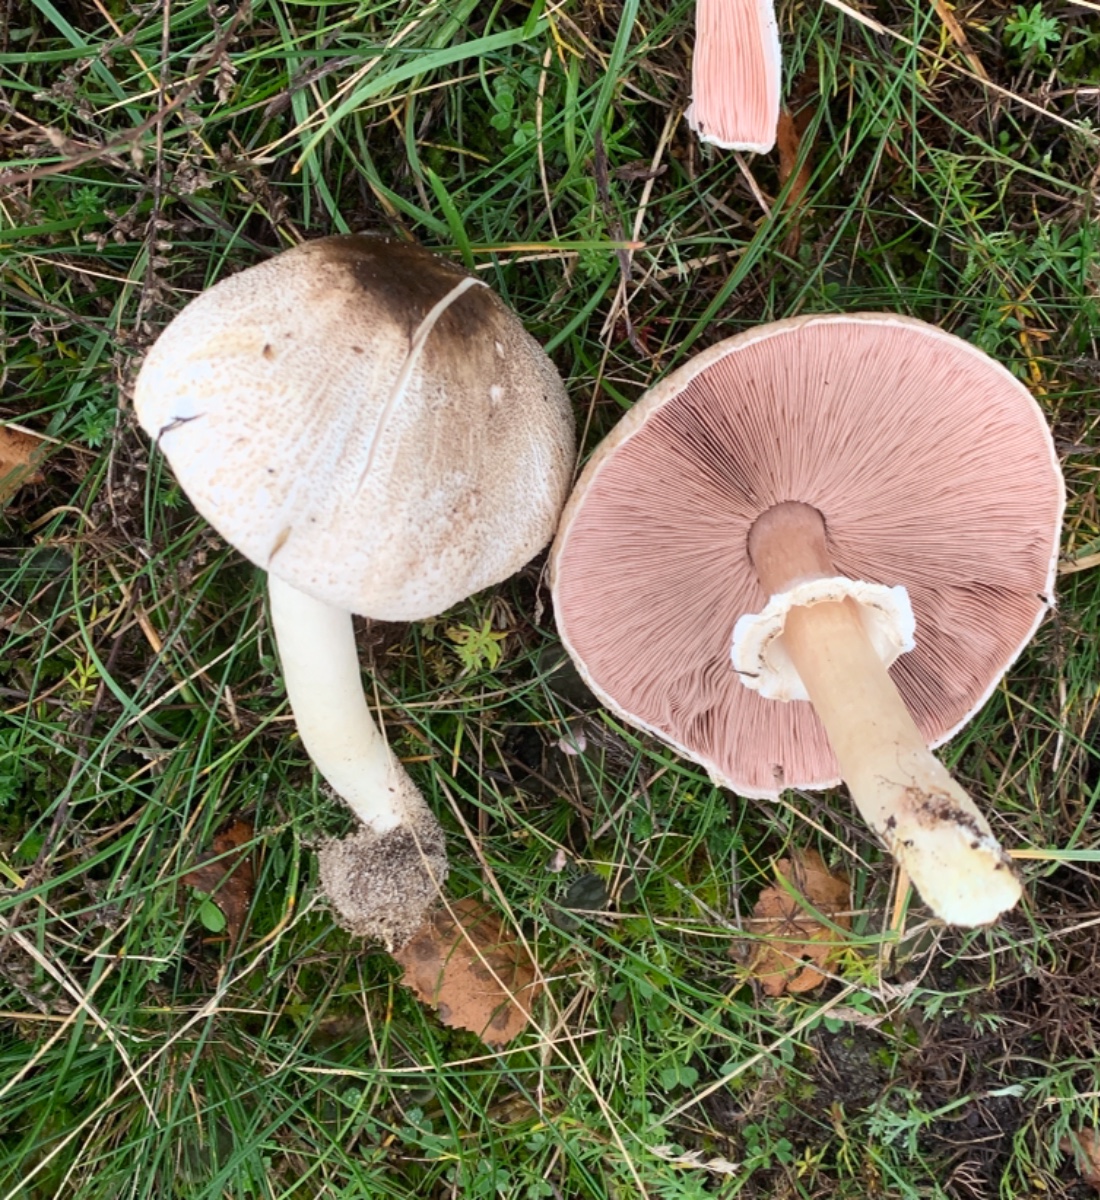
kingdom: Fungi
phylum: Basidiomycota
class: Agaricomycetes
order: Agaricales
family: Agaricaceae
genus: Agaricus
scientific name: Agaricus moelleri
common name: perlehøne-champignon
